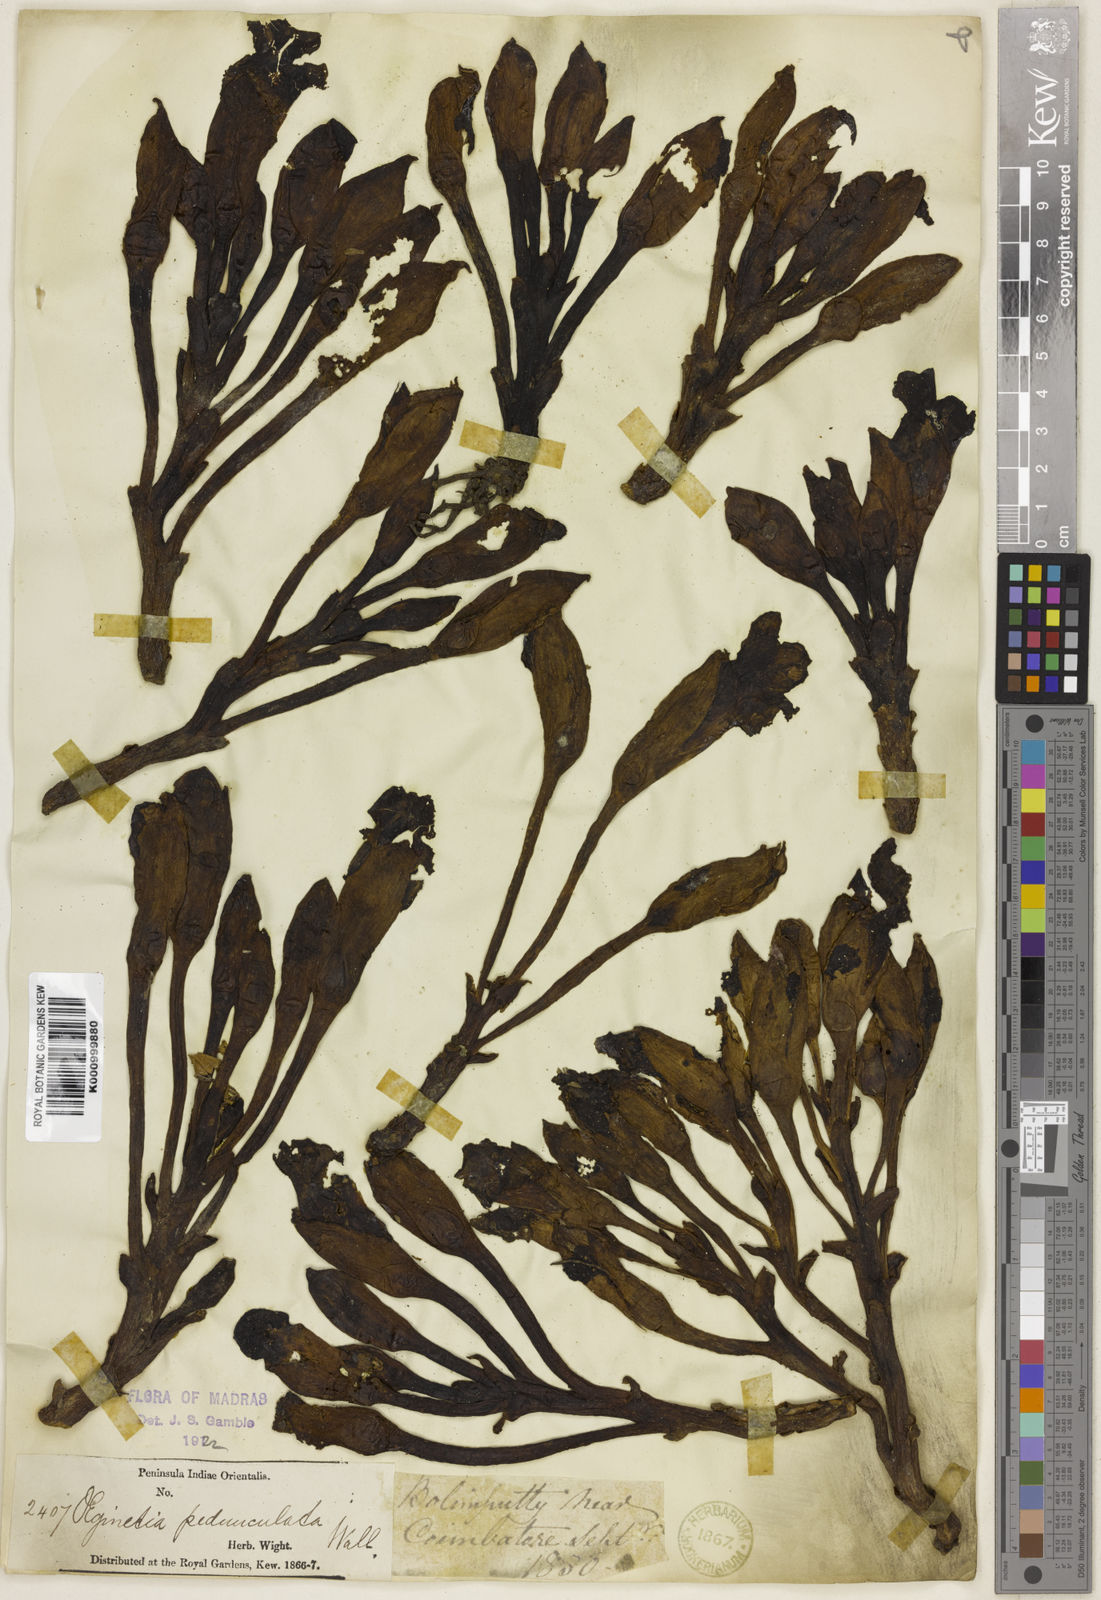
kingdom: Plantae
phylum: Tracheophyta
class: Magnoliopsida
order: Lamiales
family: Orobanchaceae
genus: Aeginetia
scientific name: Aeginetia pedunculata
